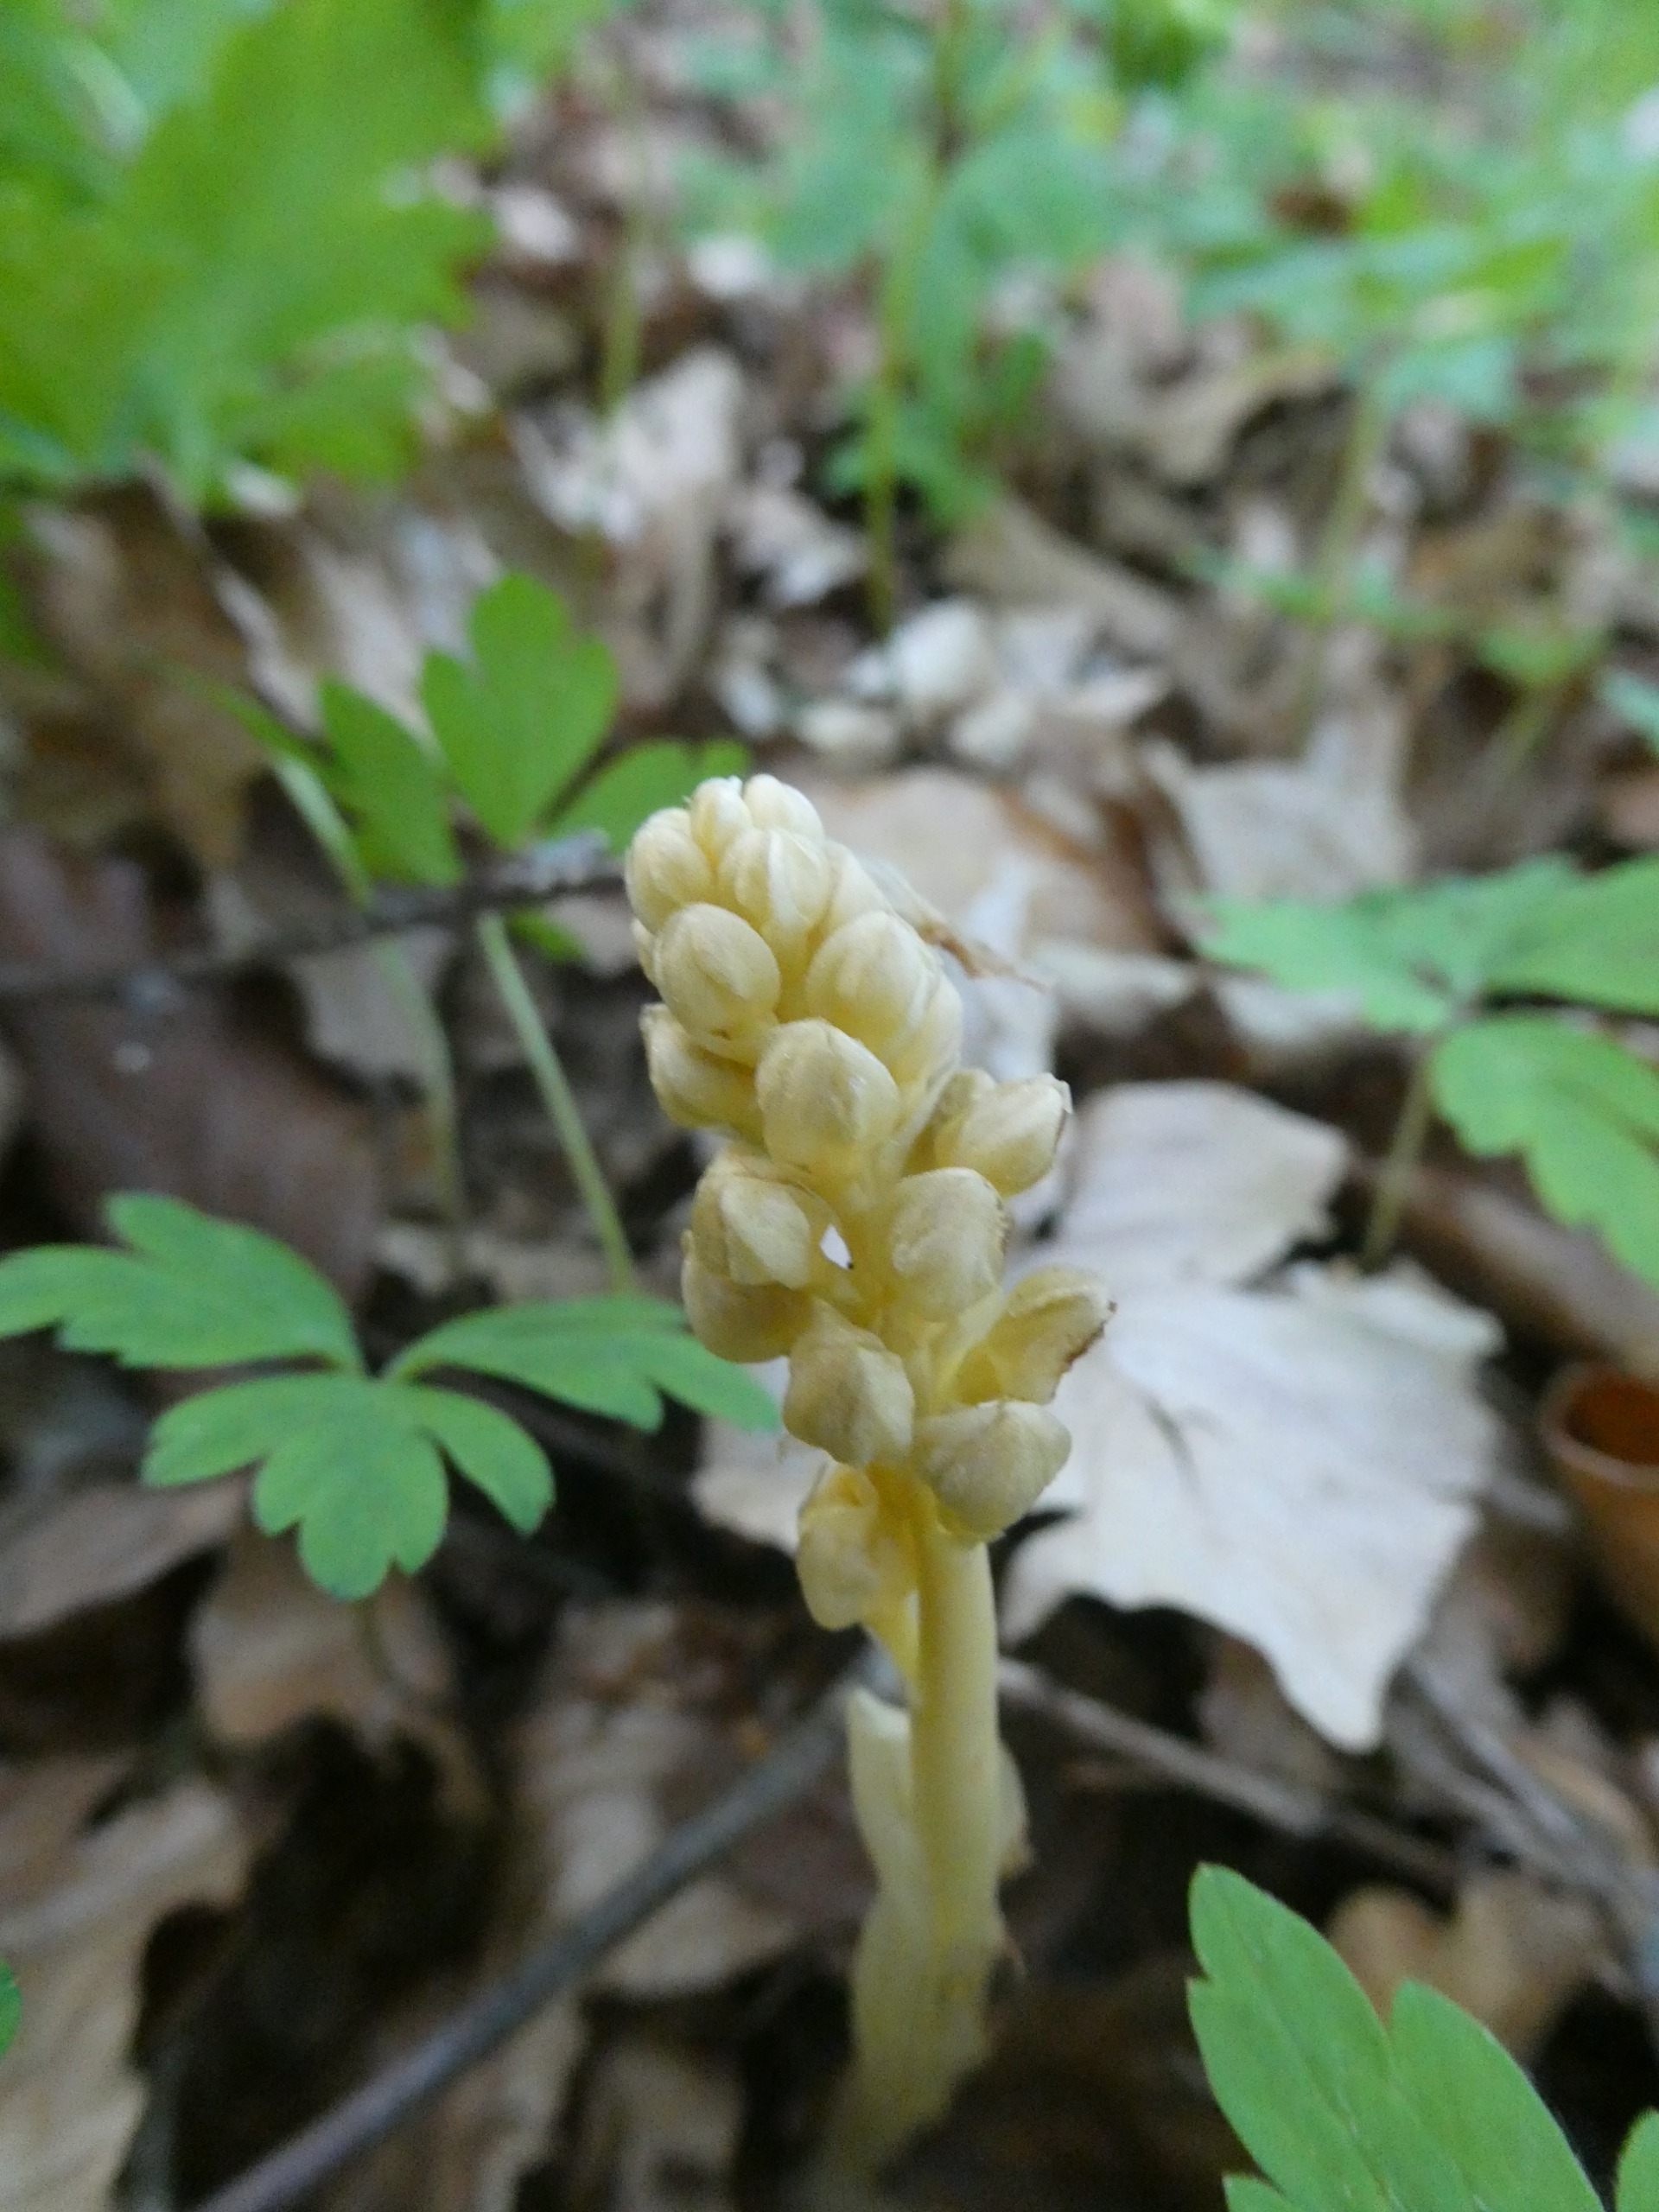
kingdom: Plantae
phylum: Tracheophyta
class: Liliopsida
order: Asparagales
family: Orchidaceae
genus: Neottia
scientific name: Neottia nidus-avis
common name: Rederod
